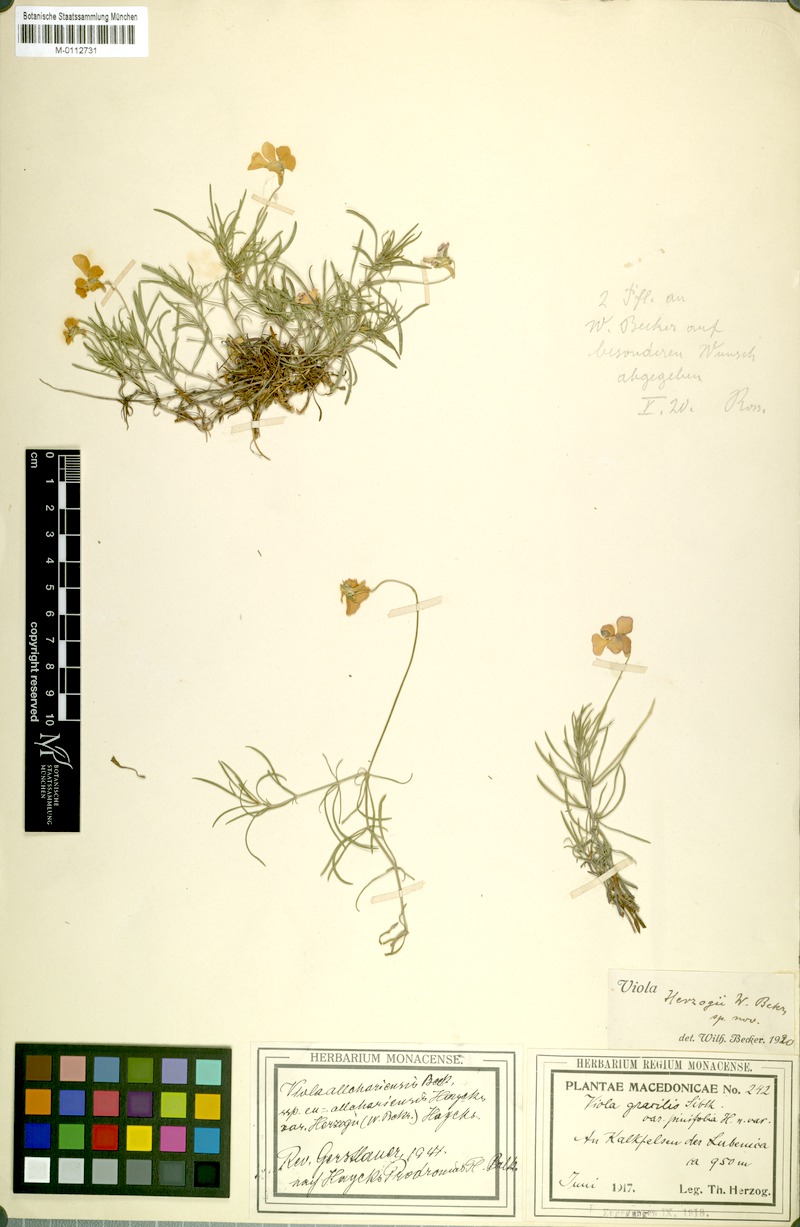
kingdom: Plantae
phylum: Tracheophyta
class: Magnoliopsida
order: Malpighiales
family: Violaceae
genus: Viola
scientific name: Viola allchariensis
